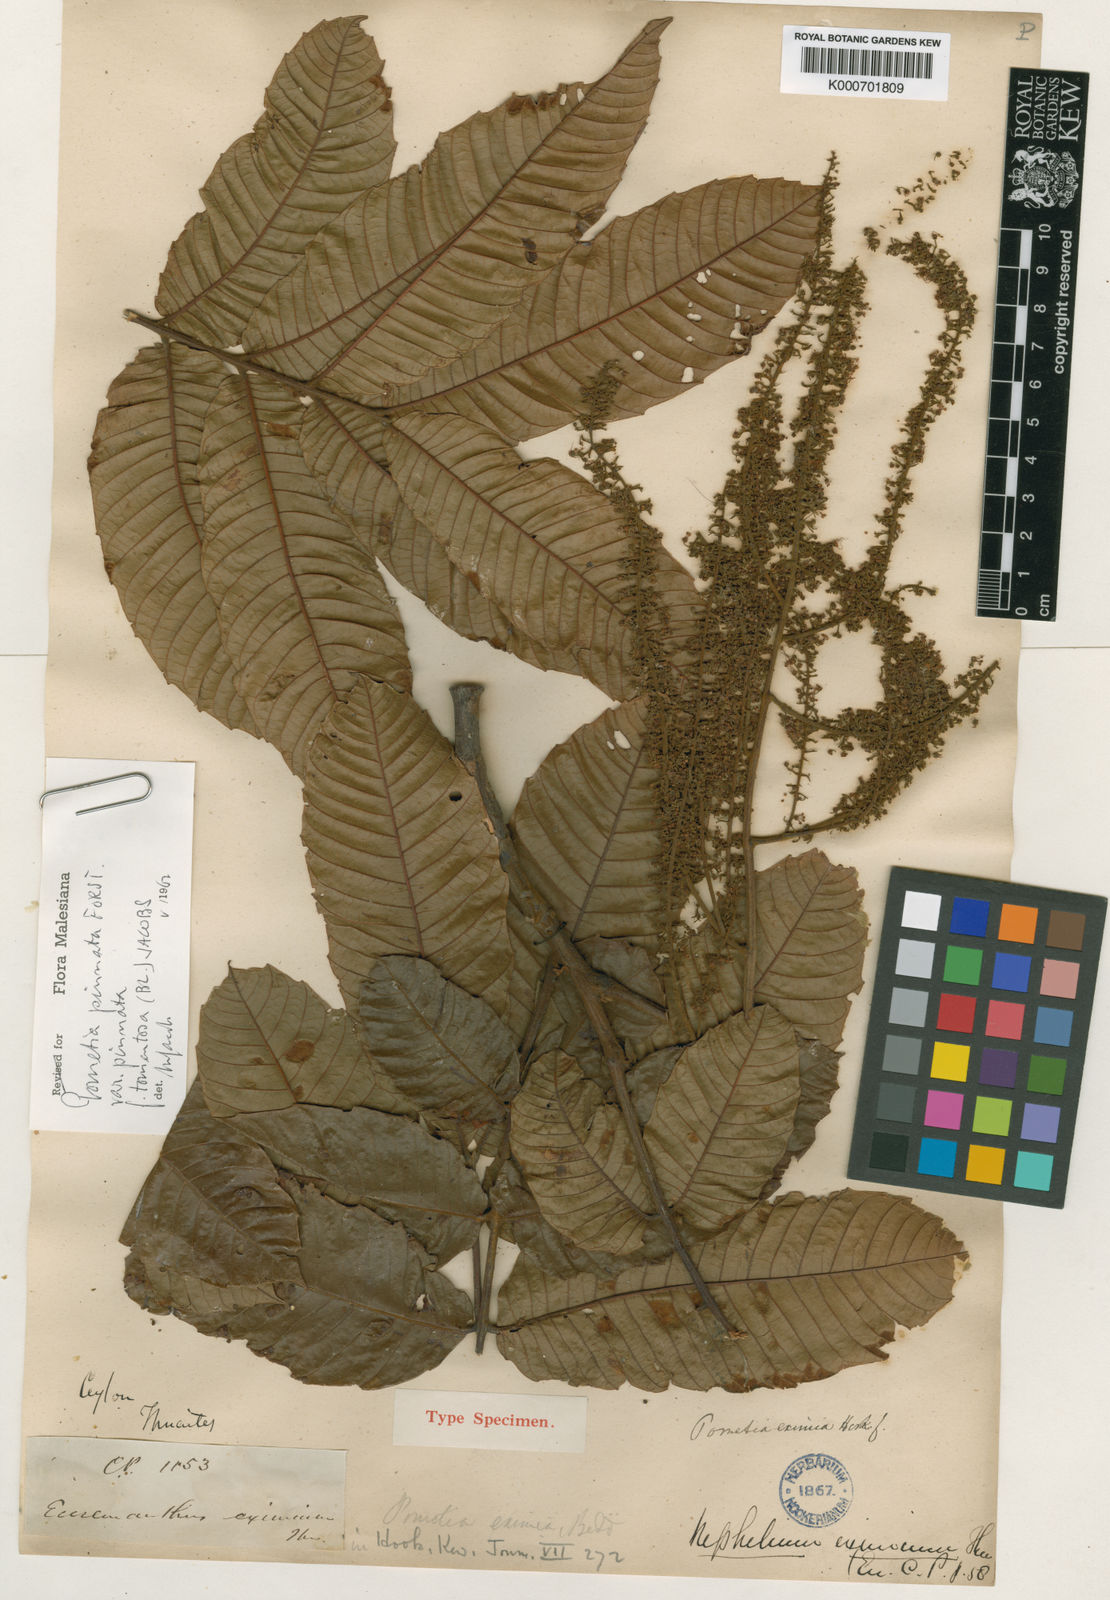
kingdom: Plantae
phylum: Tracheophyta
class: Magnoliopsida
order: Sapindales
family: Sapindaceae
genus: Pometia
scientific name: Pometia pinnata
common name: Oceanic lychee
